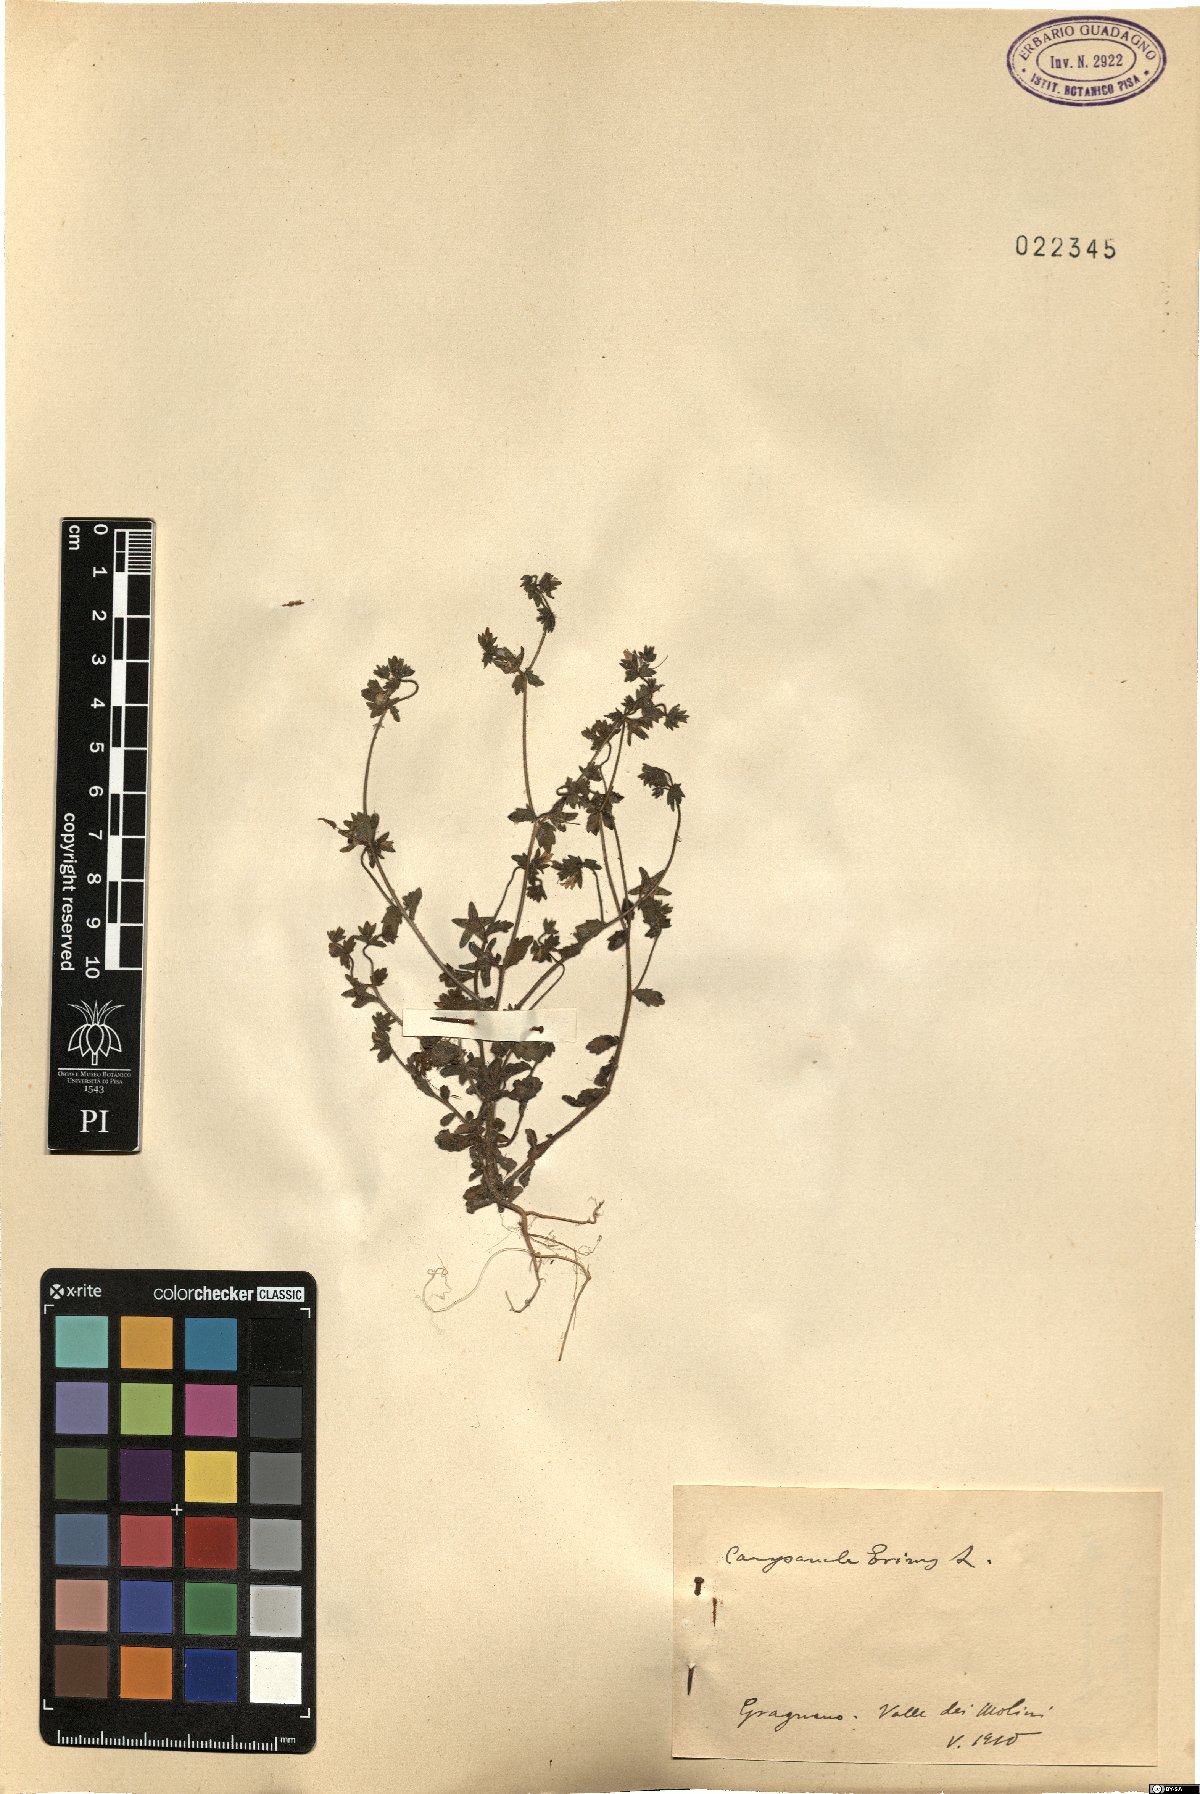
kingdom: Plantae
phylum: Tracheophyta
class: Magnoliopsida
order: Asterales
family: Campanulaceae
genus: Campanula
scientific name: Campanula erinus
